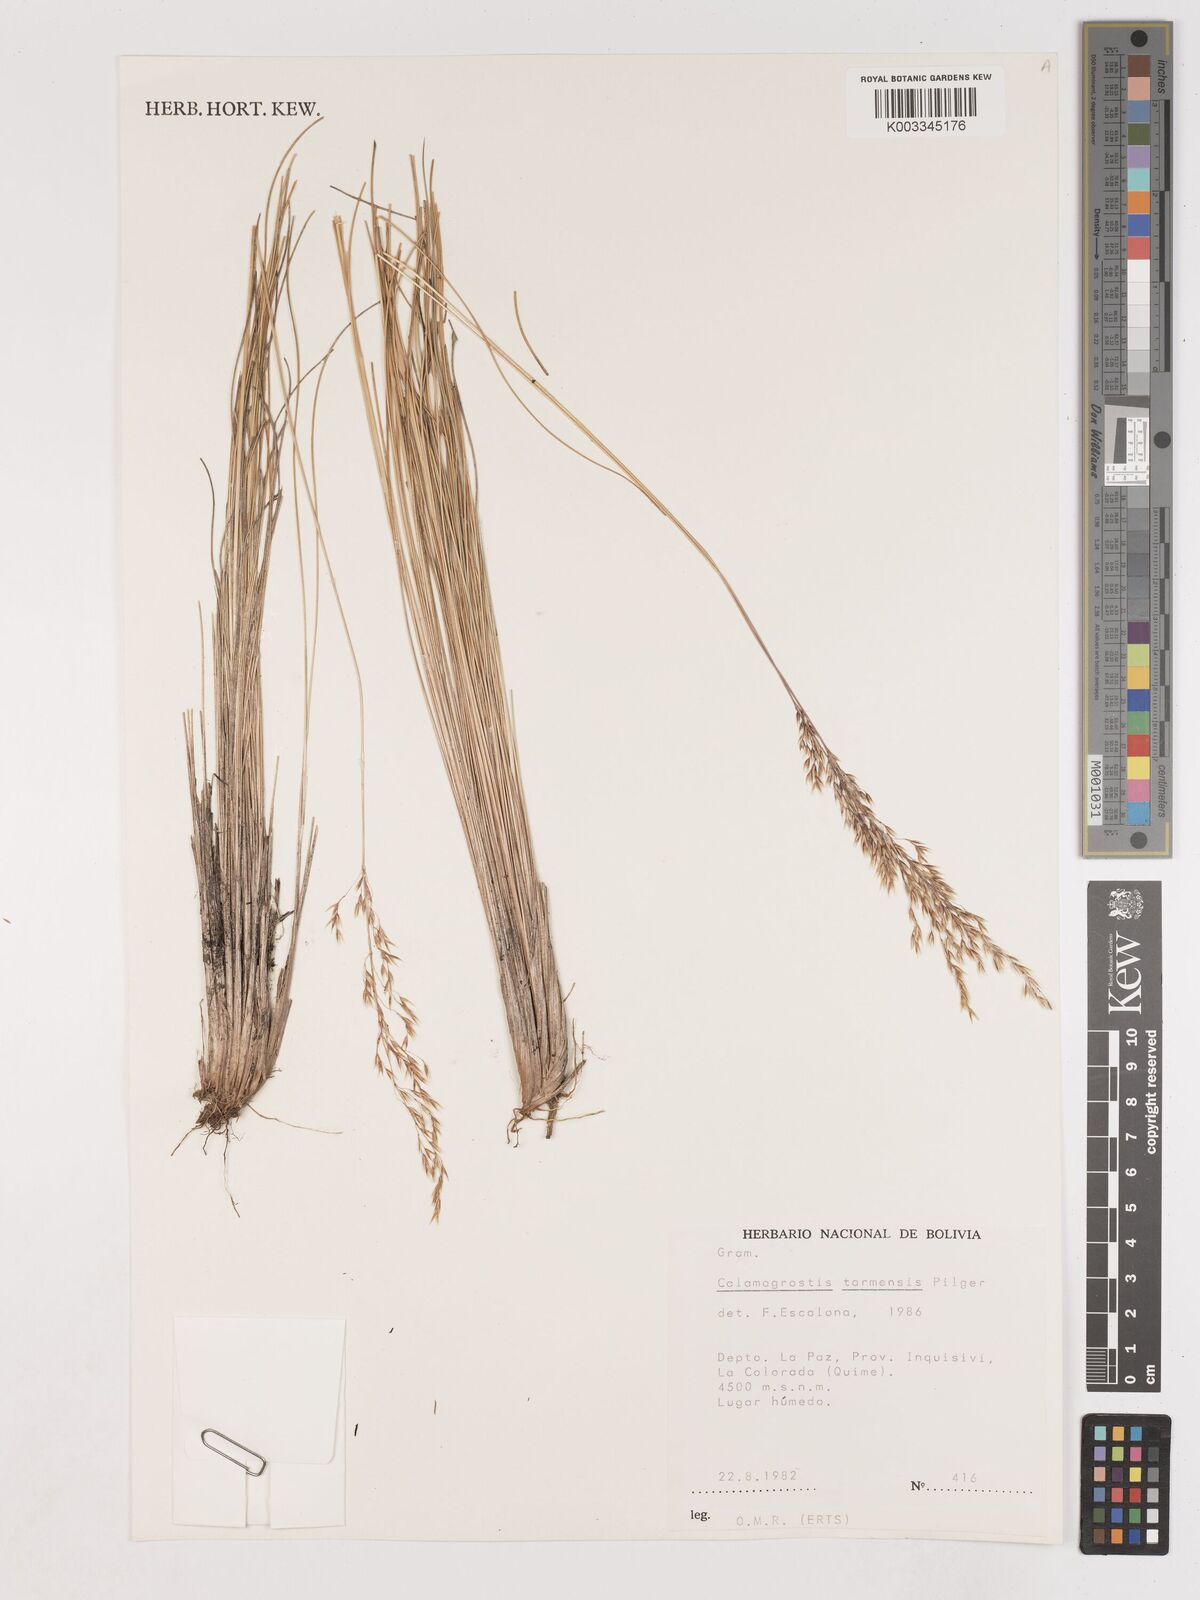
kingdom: Plantae
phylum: Tracheophyta
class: Liliopsida
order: Poales
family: Poaceae
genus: Calamagrostis
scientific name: Calamagrostis
